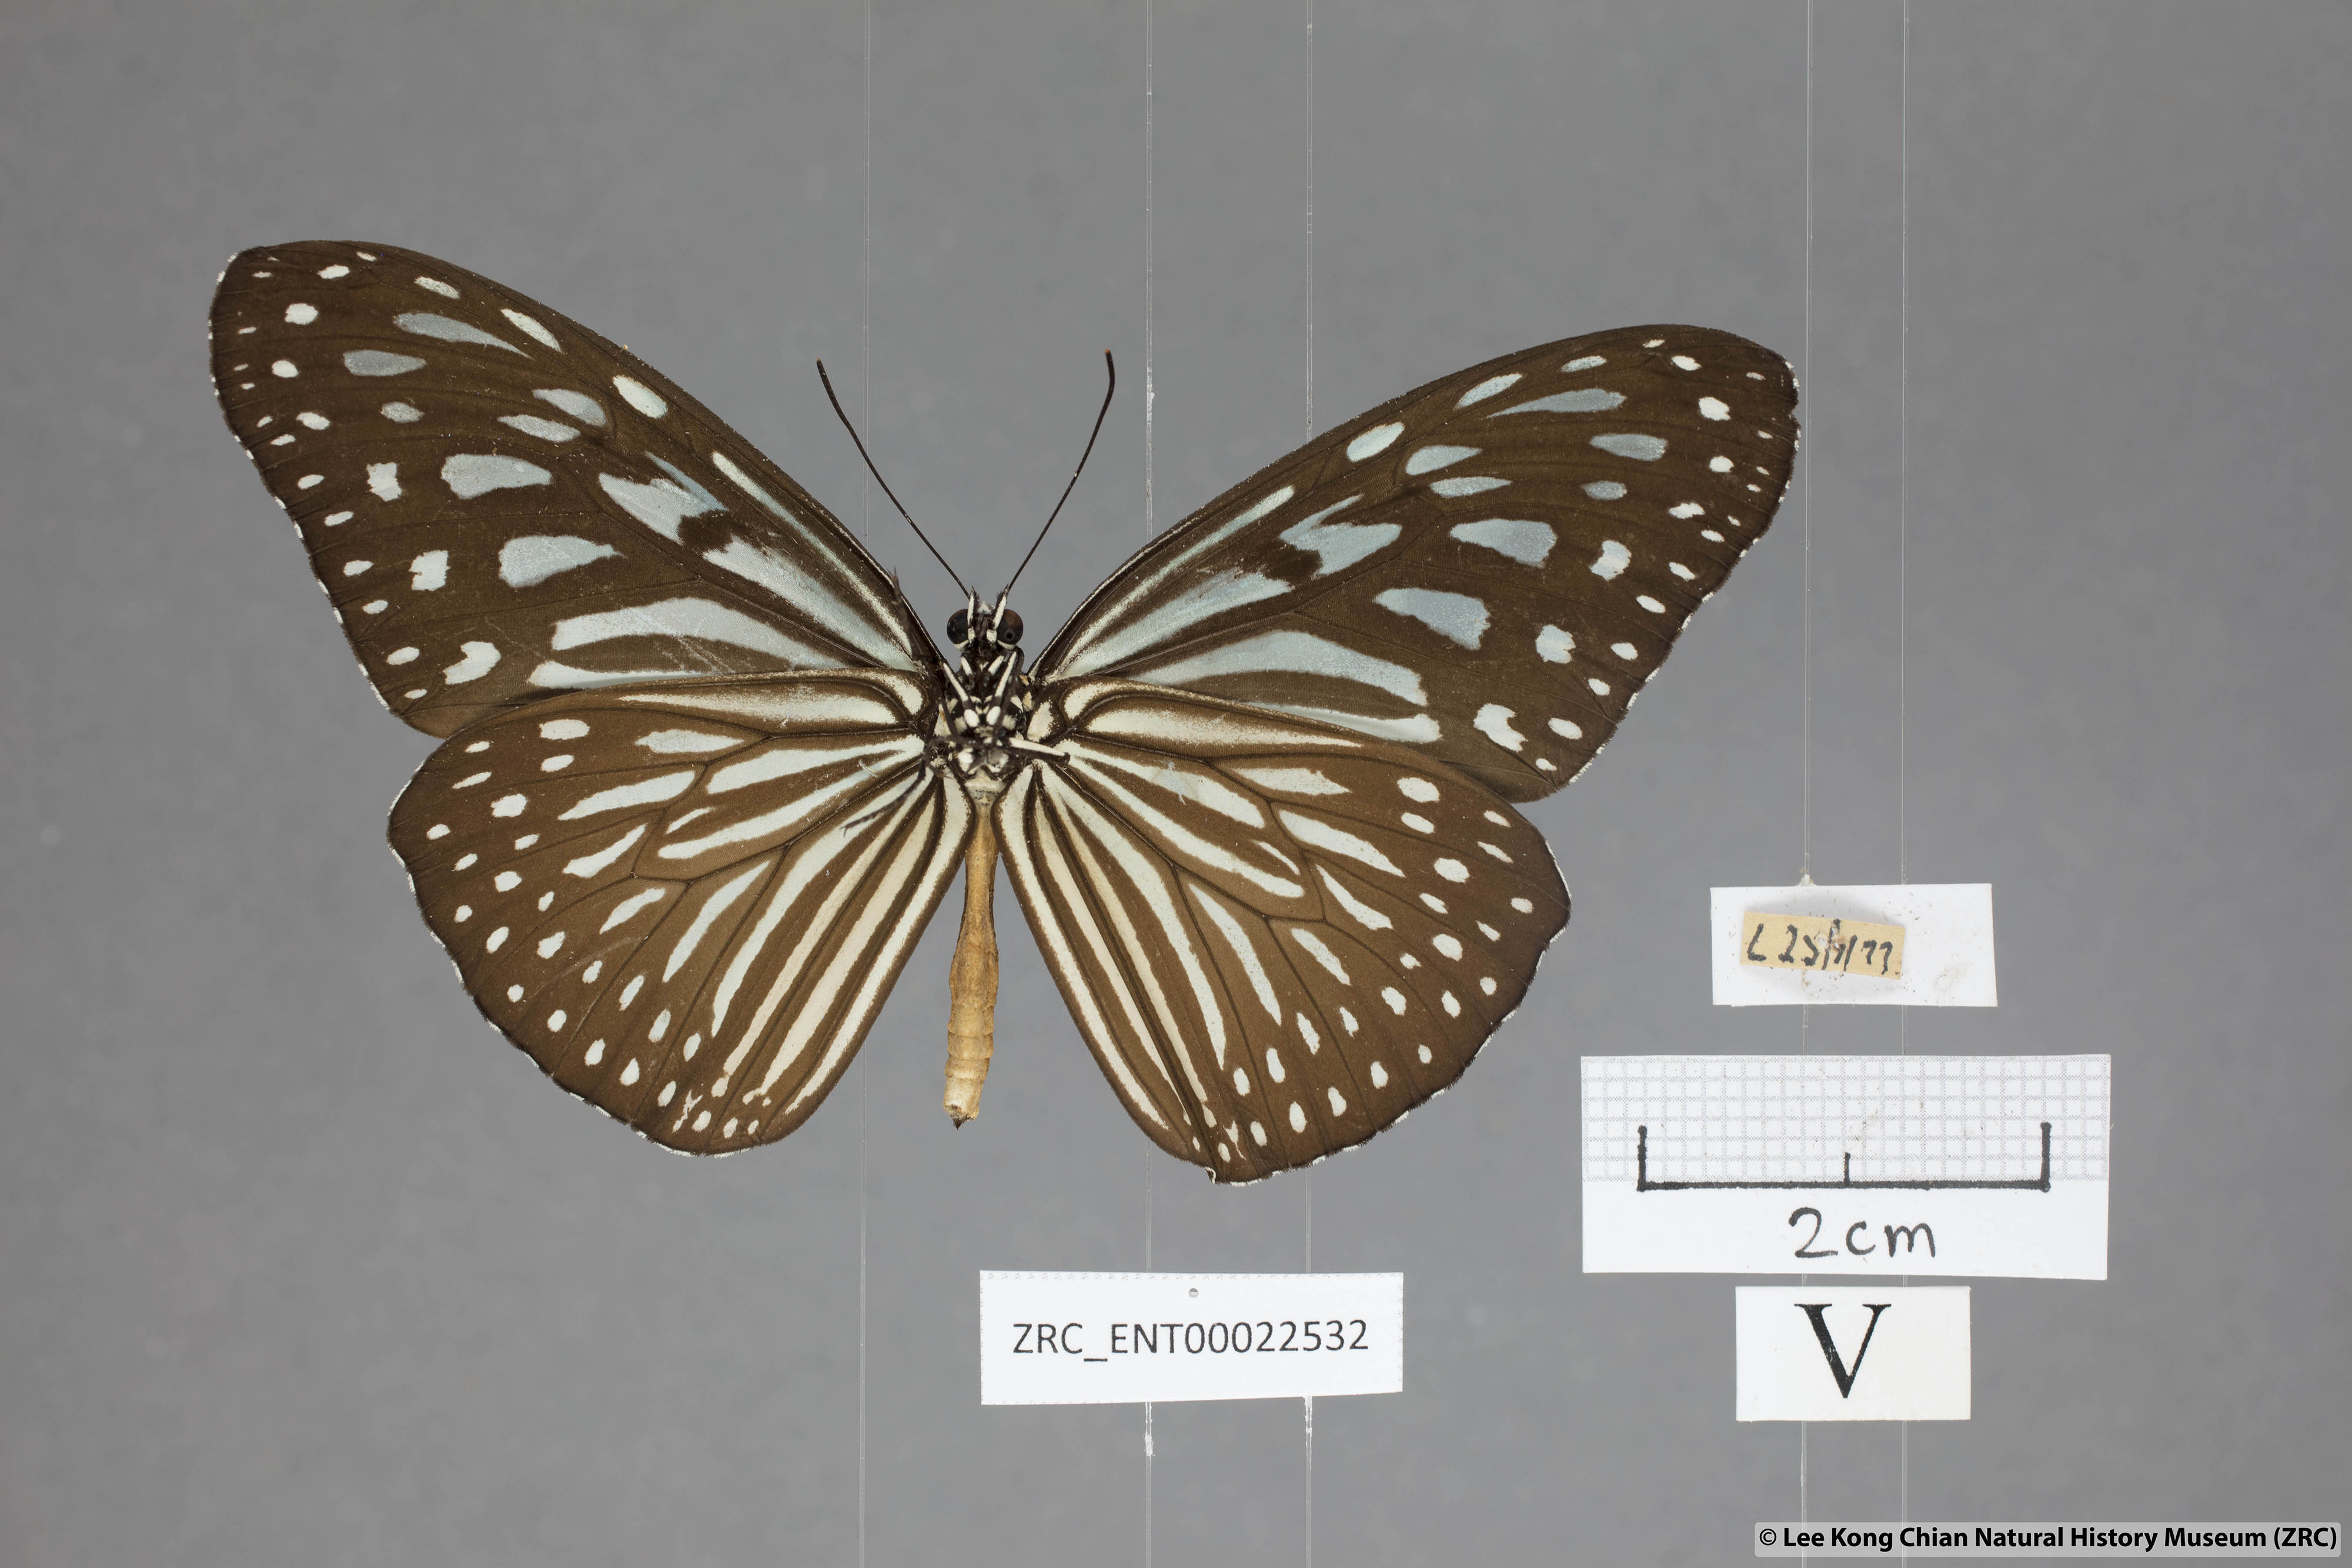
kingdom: Animalia
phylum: Arthropoda
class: Insecta
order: Lepidoptera
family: Nymphalidae
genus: Ideopsis
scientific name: Ideopsis vulgaris
